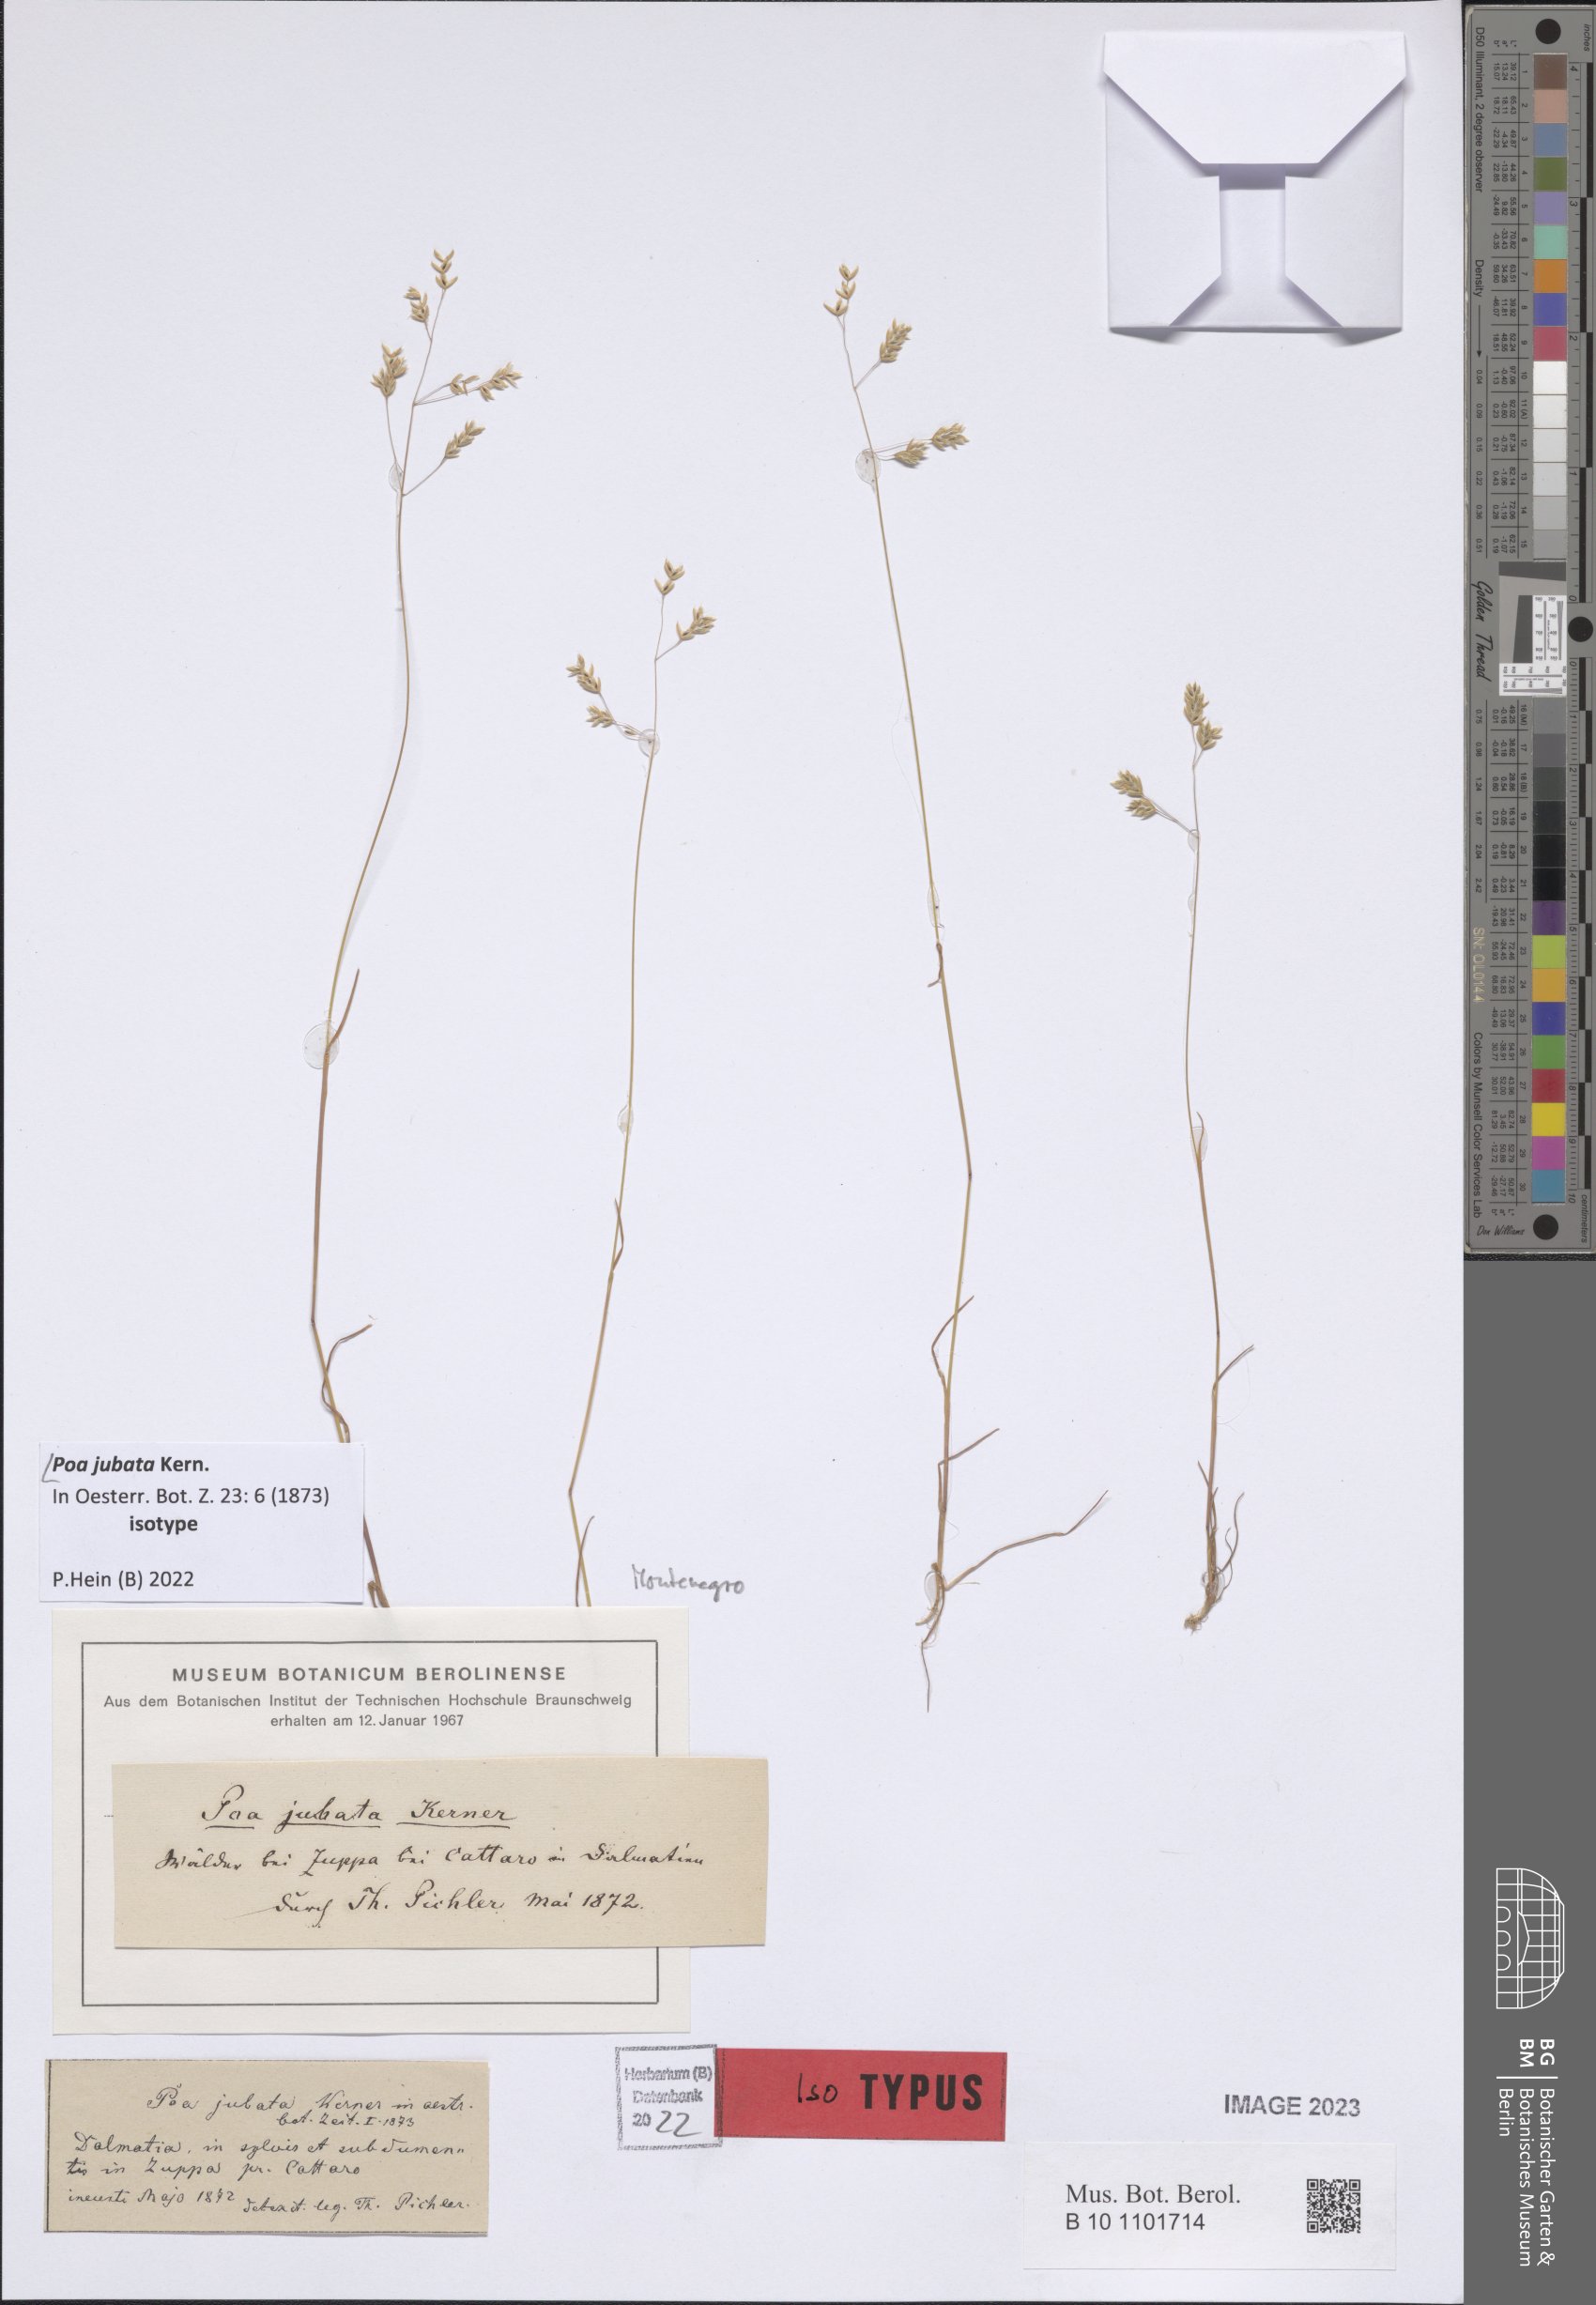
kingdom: Plantae
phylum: Tracheophyta
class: Liliopsida
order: Poales
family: Poaceae
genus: Poa
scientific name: Poa jubata
